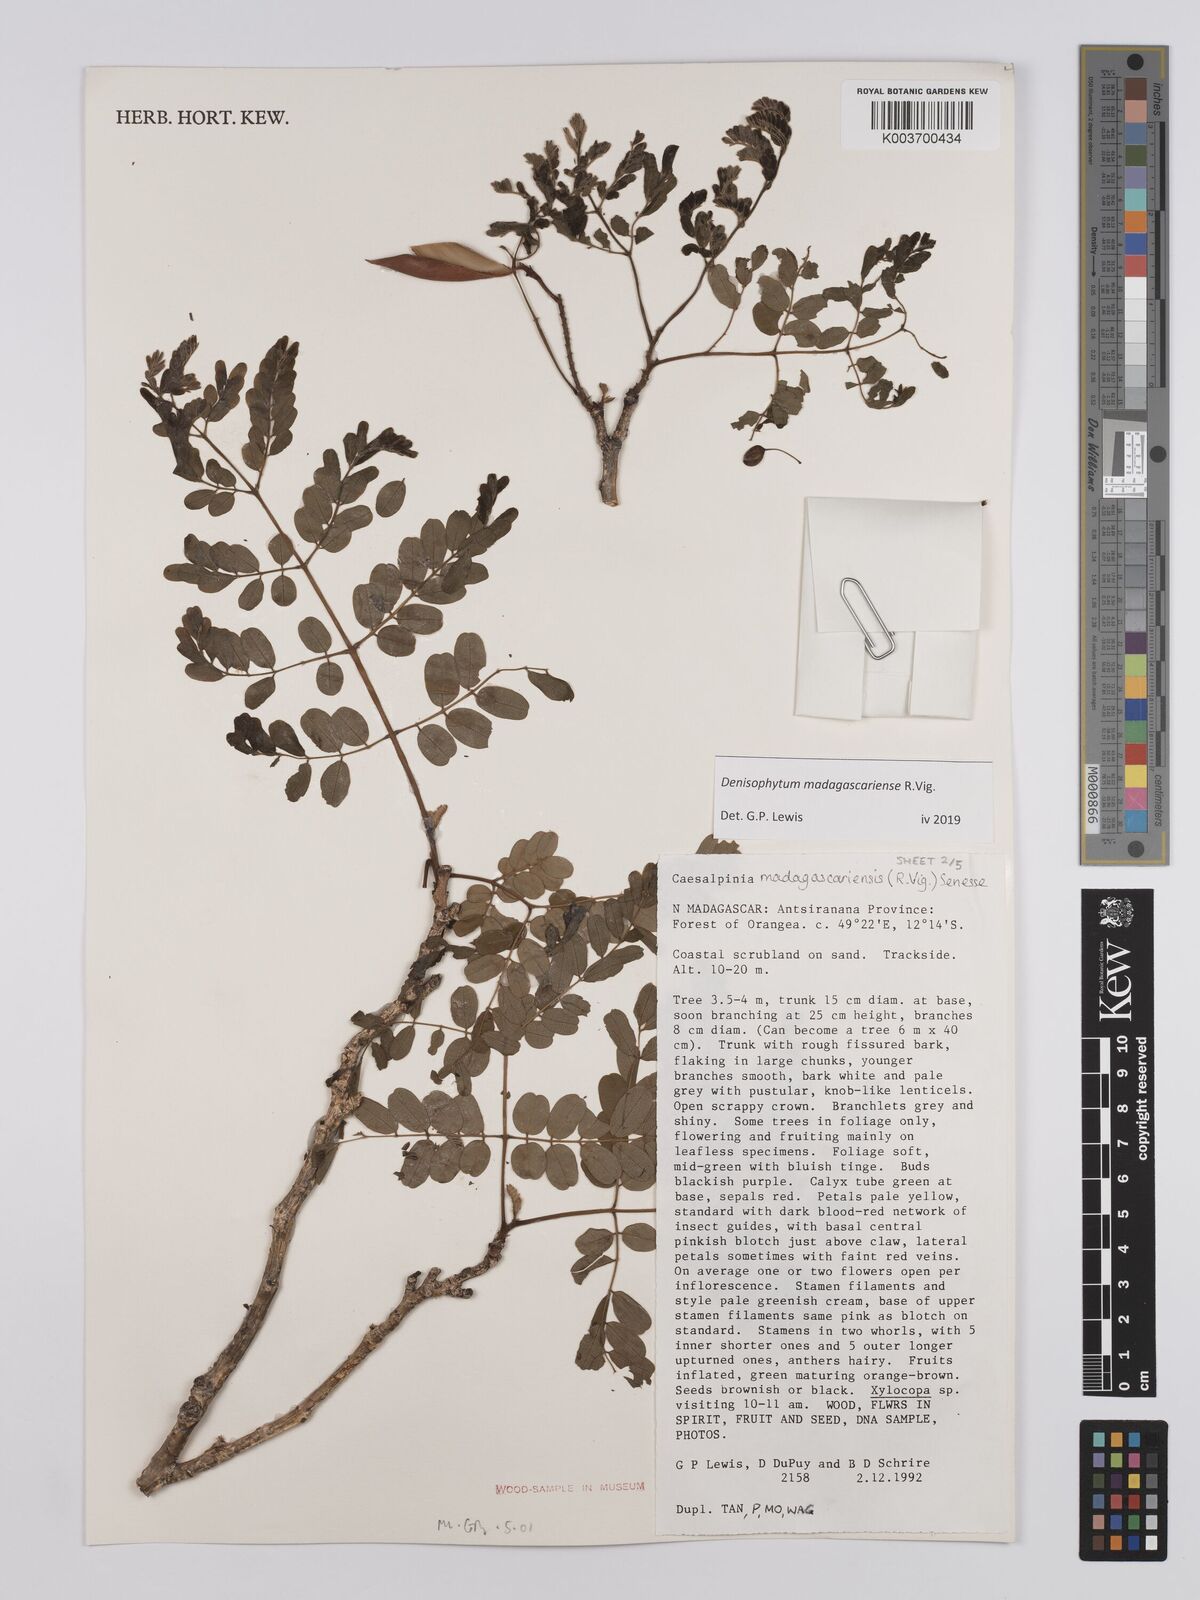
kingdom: Plantae
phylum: Tracheophyta
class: Magnoliopsida
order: Fabales
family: Fabaceae
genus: Denisophytum
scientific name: Denisophytum madagascariense
